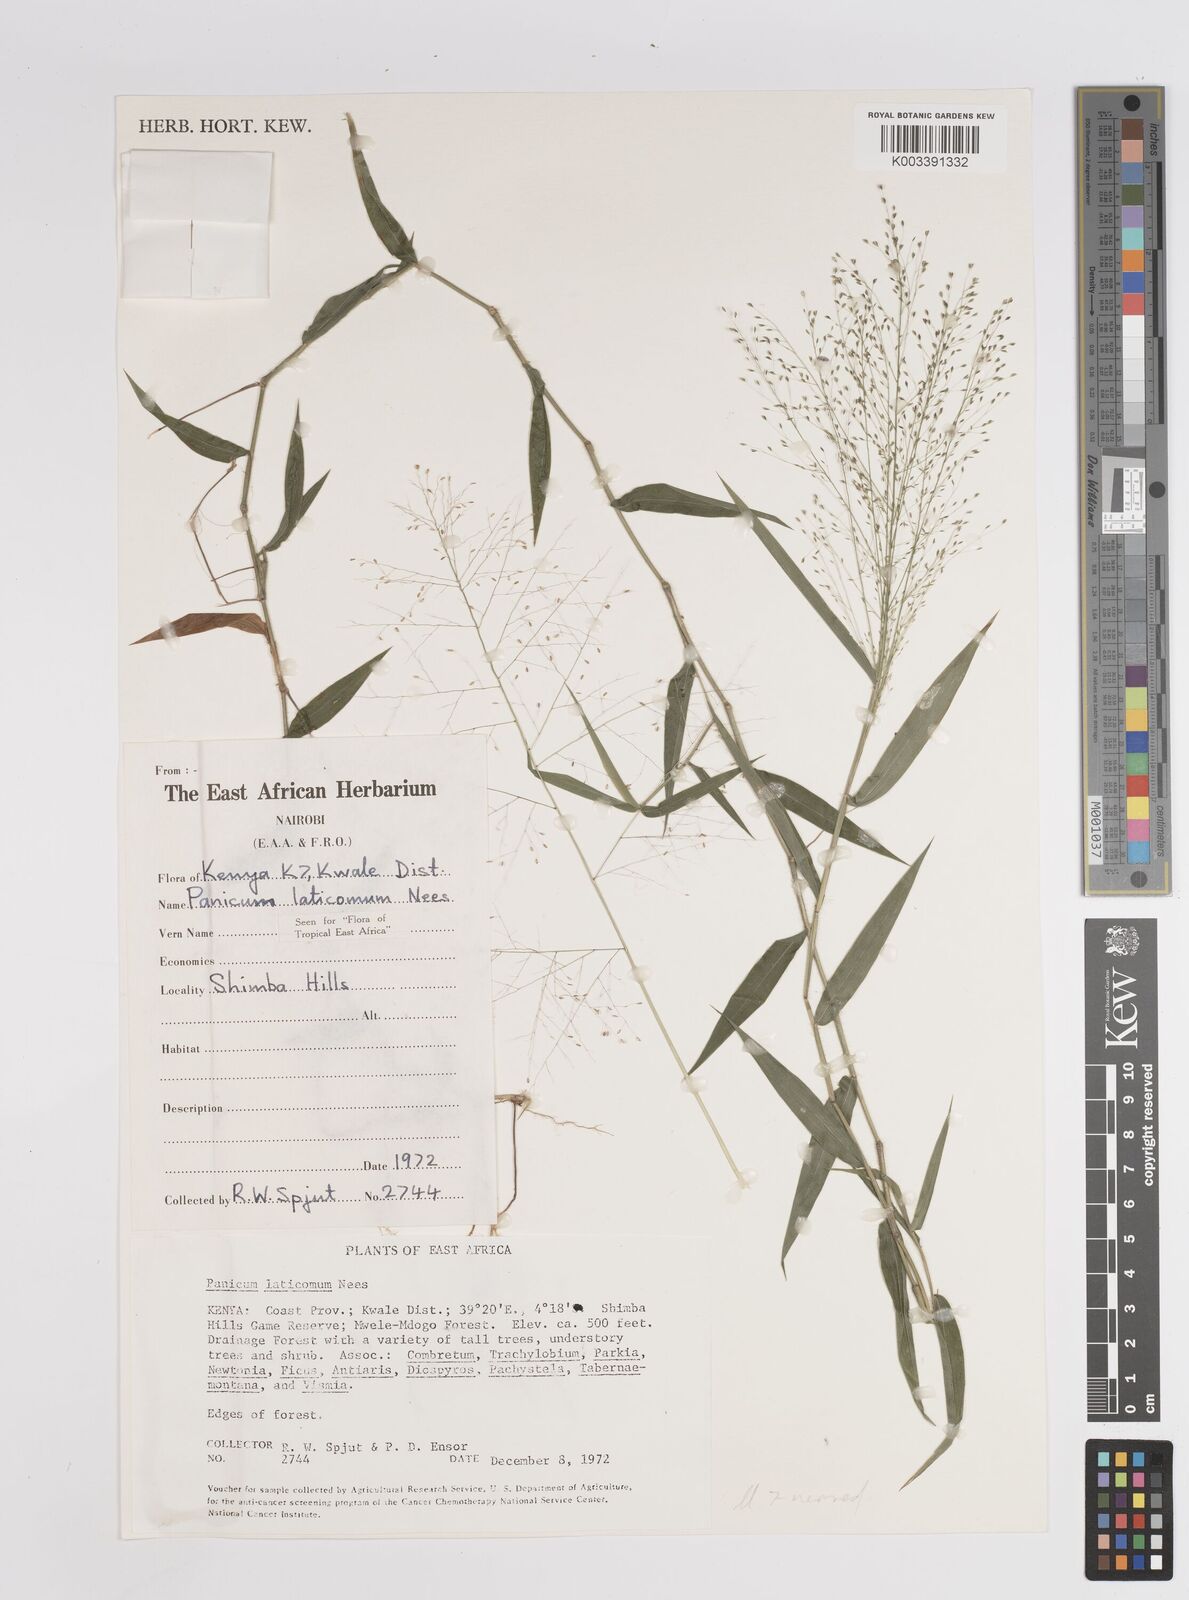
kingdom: Plantae
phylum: Tracheophyta
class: Liliopsida
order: Poales
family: Poaceae
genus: Panicum
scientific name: Panicum laticomum
